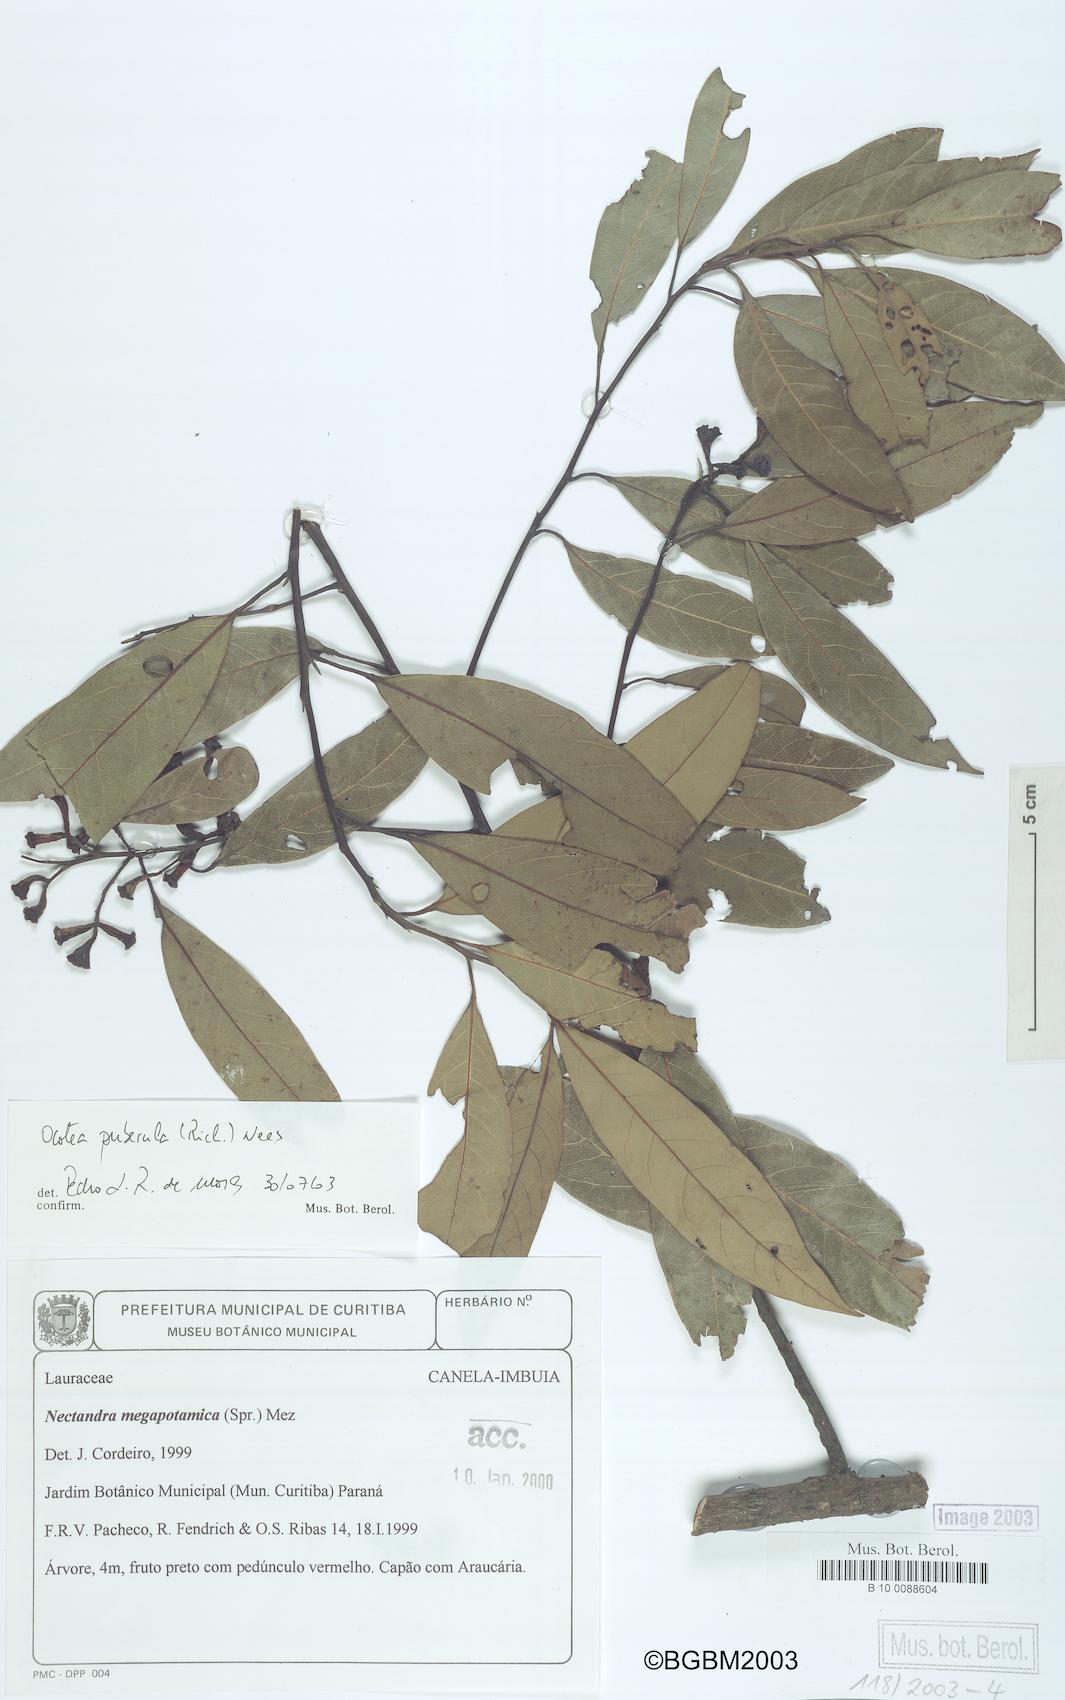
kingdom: Plantae
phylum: Tracheophyta
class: Magnoliopsida
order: Laurales
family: Lauraceae
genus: Ocotea
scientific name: Ocotea puberula
